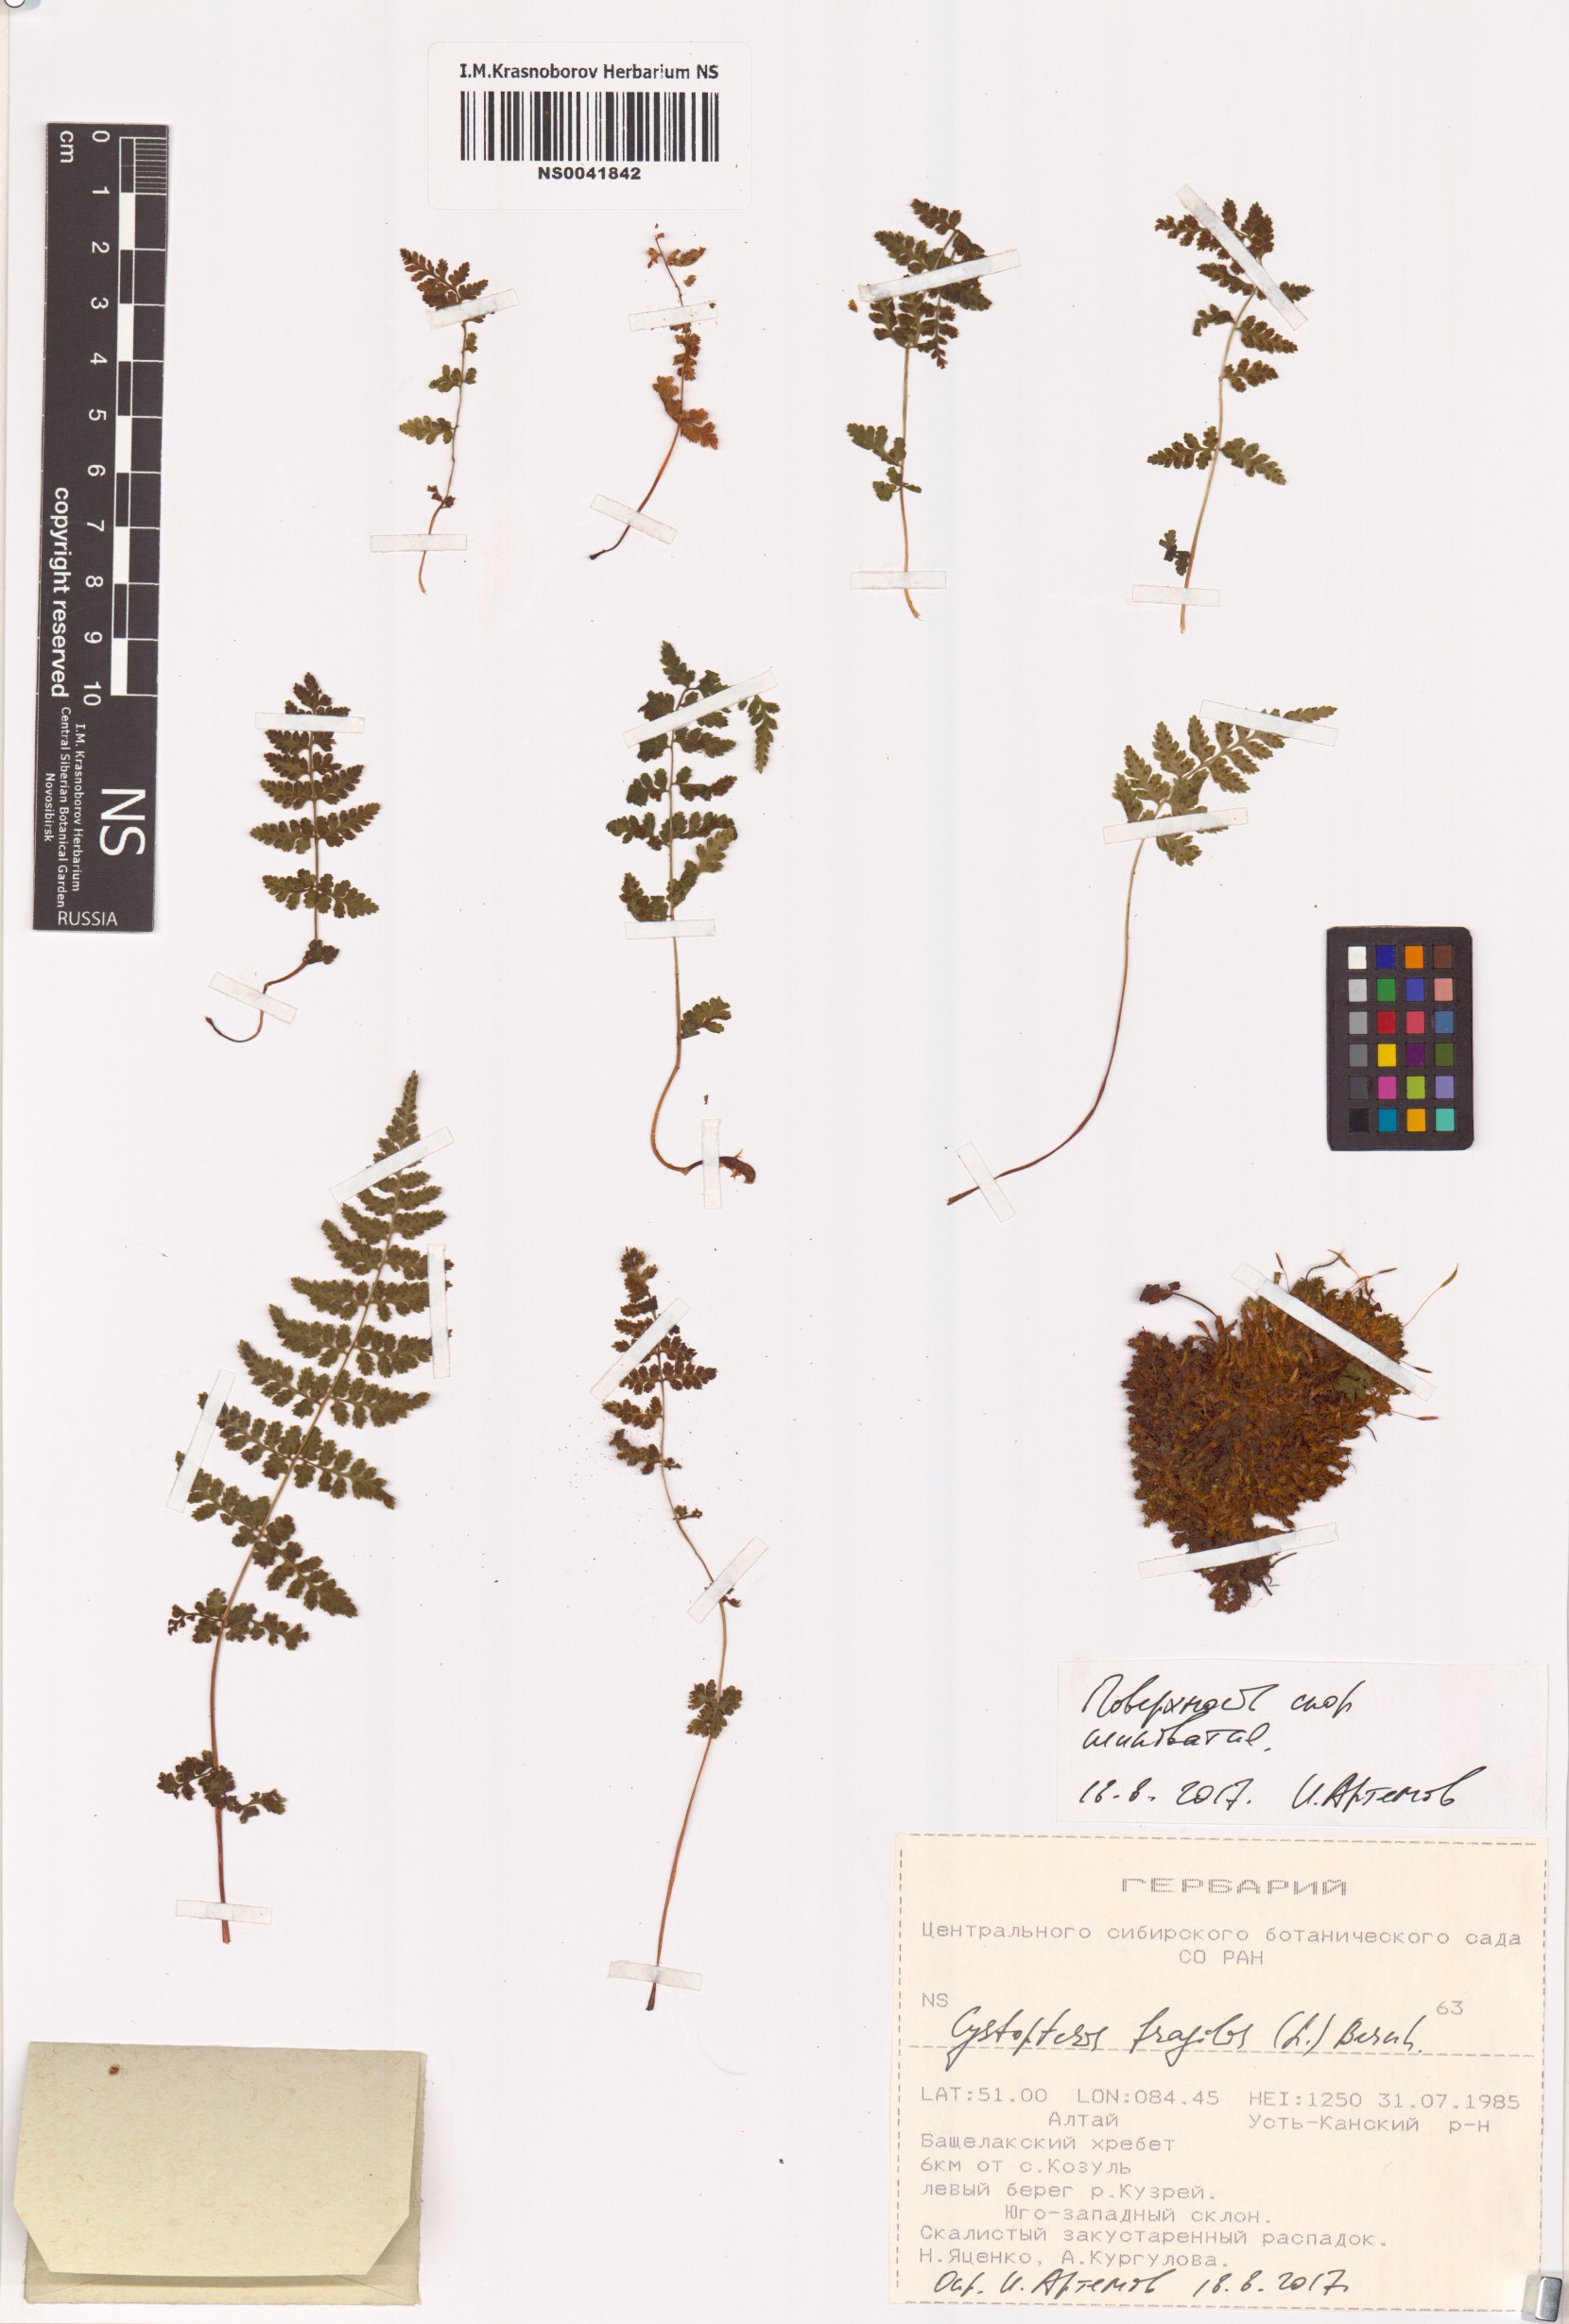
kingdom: Plantae
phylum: Tracheophyta
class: Polypodiopsida
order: Polypodiales
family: Cystopteridaceae
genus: Cystopteris
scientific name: Cystopteris fragilis
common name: Brittle bladder fern
